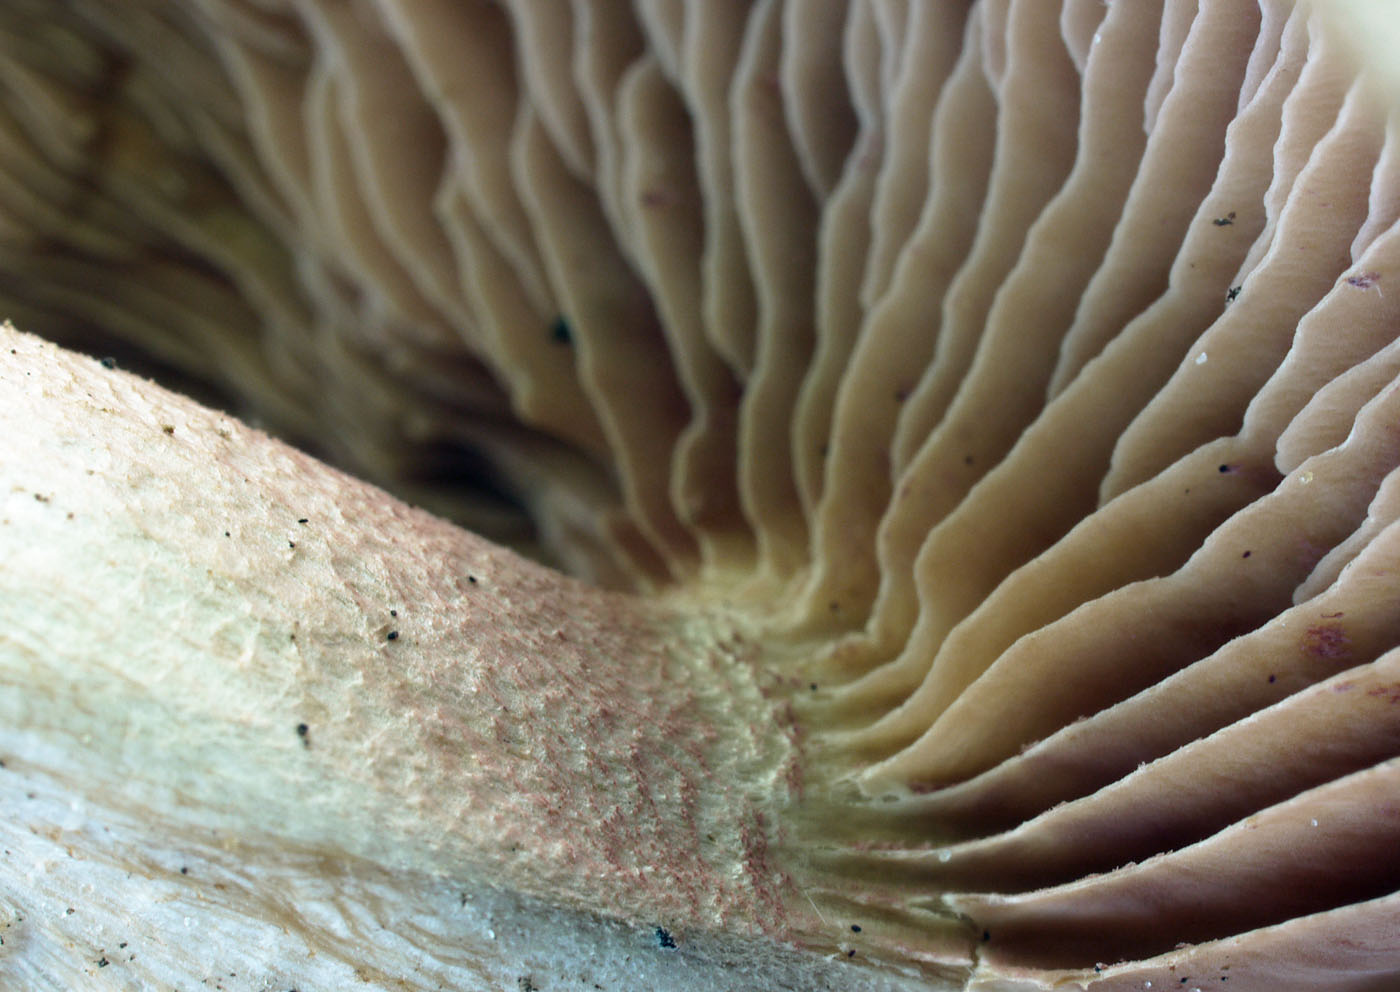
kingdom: Fungi
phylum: Basidiomycota
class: Agaricomycetes
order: Agaricales
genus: Hertzogia
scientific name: Hertzogia martiorum
